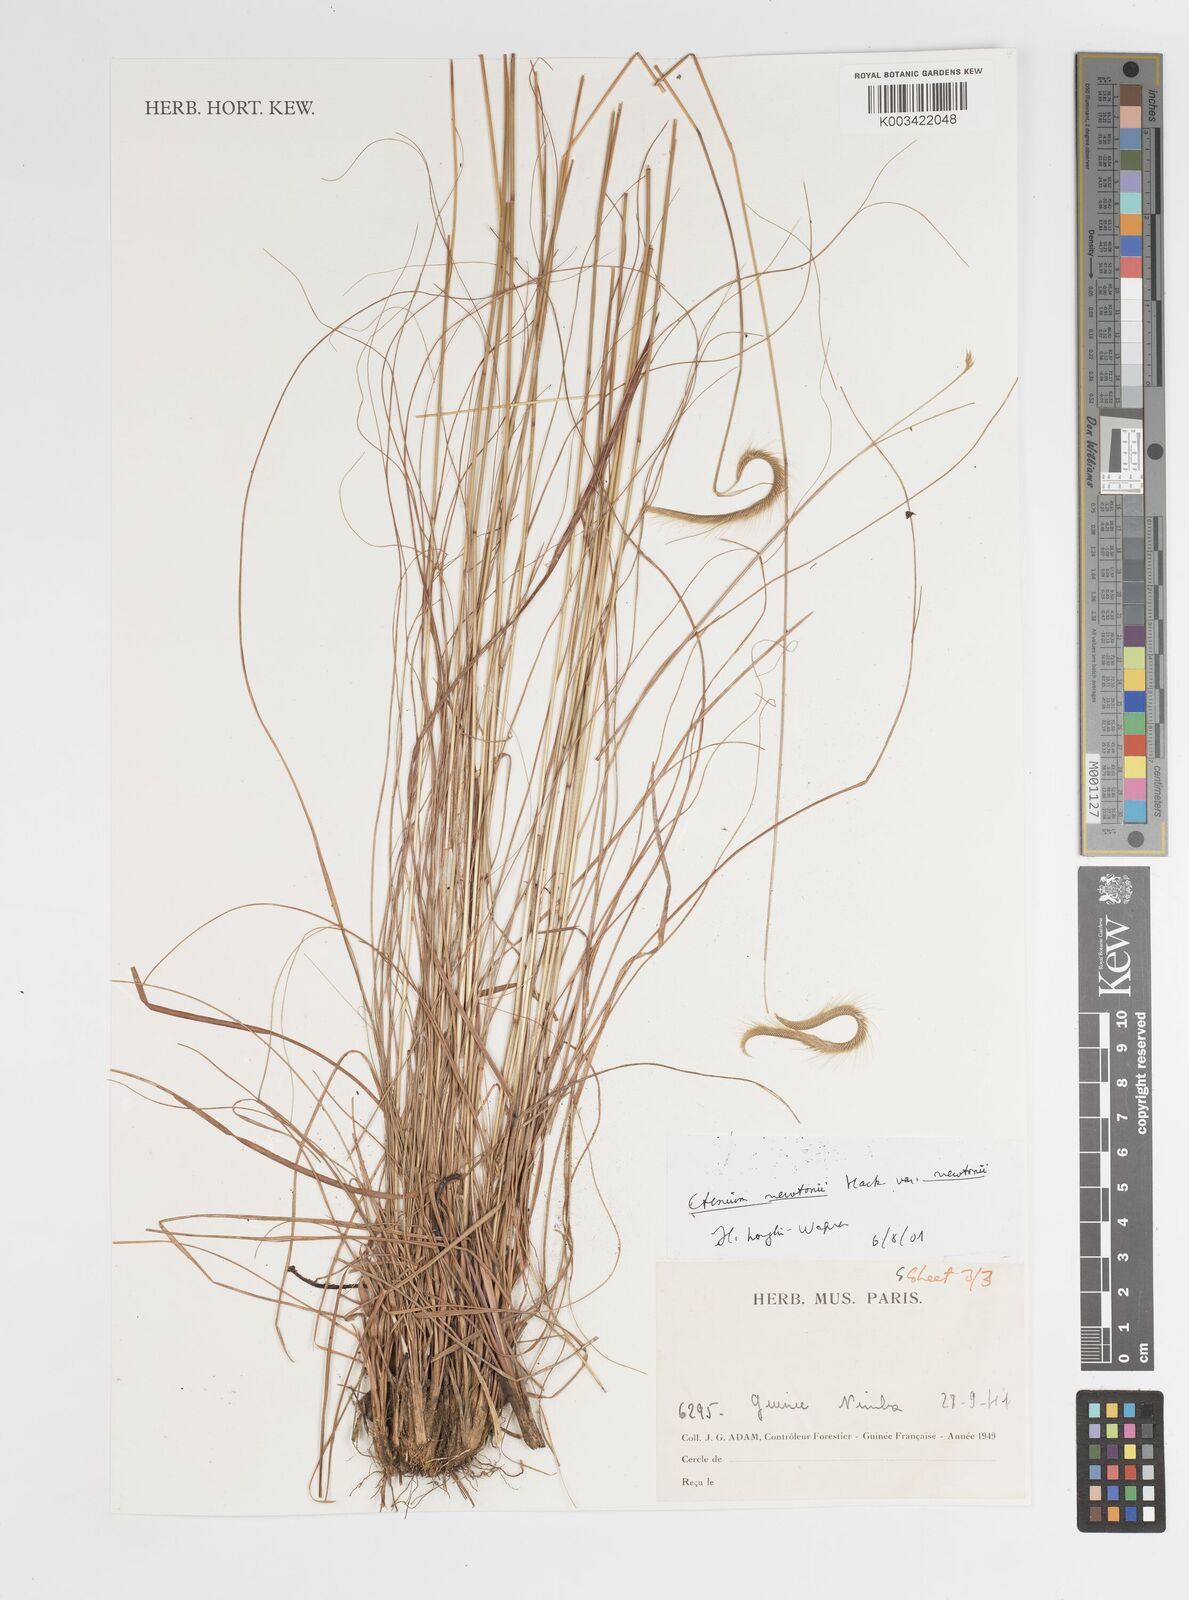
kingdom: Plantae
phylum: Tracheophyta
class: Liliopsida
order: Poales
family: Poaceae
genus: Ctenium
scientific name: Ctenium newtonii
